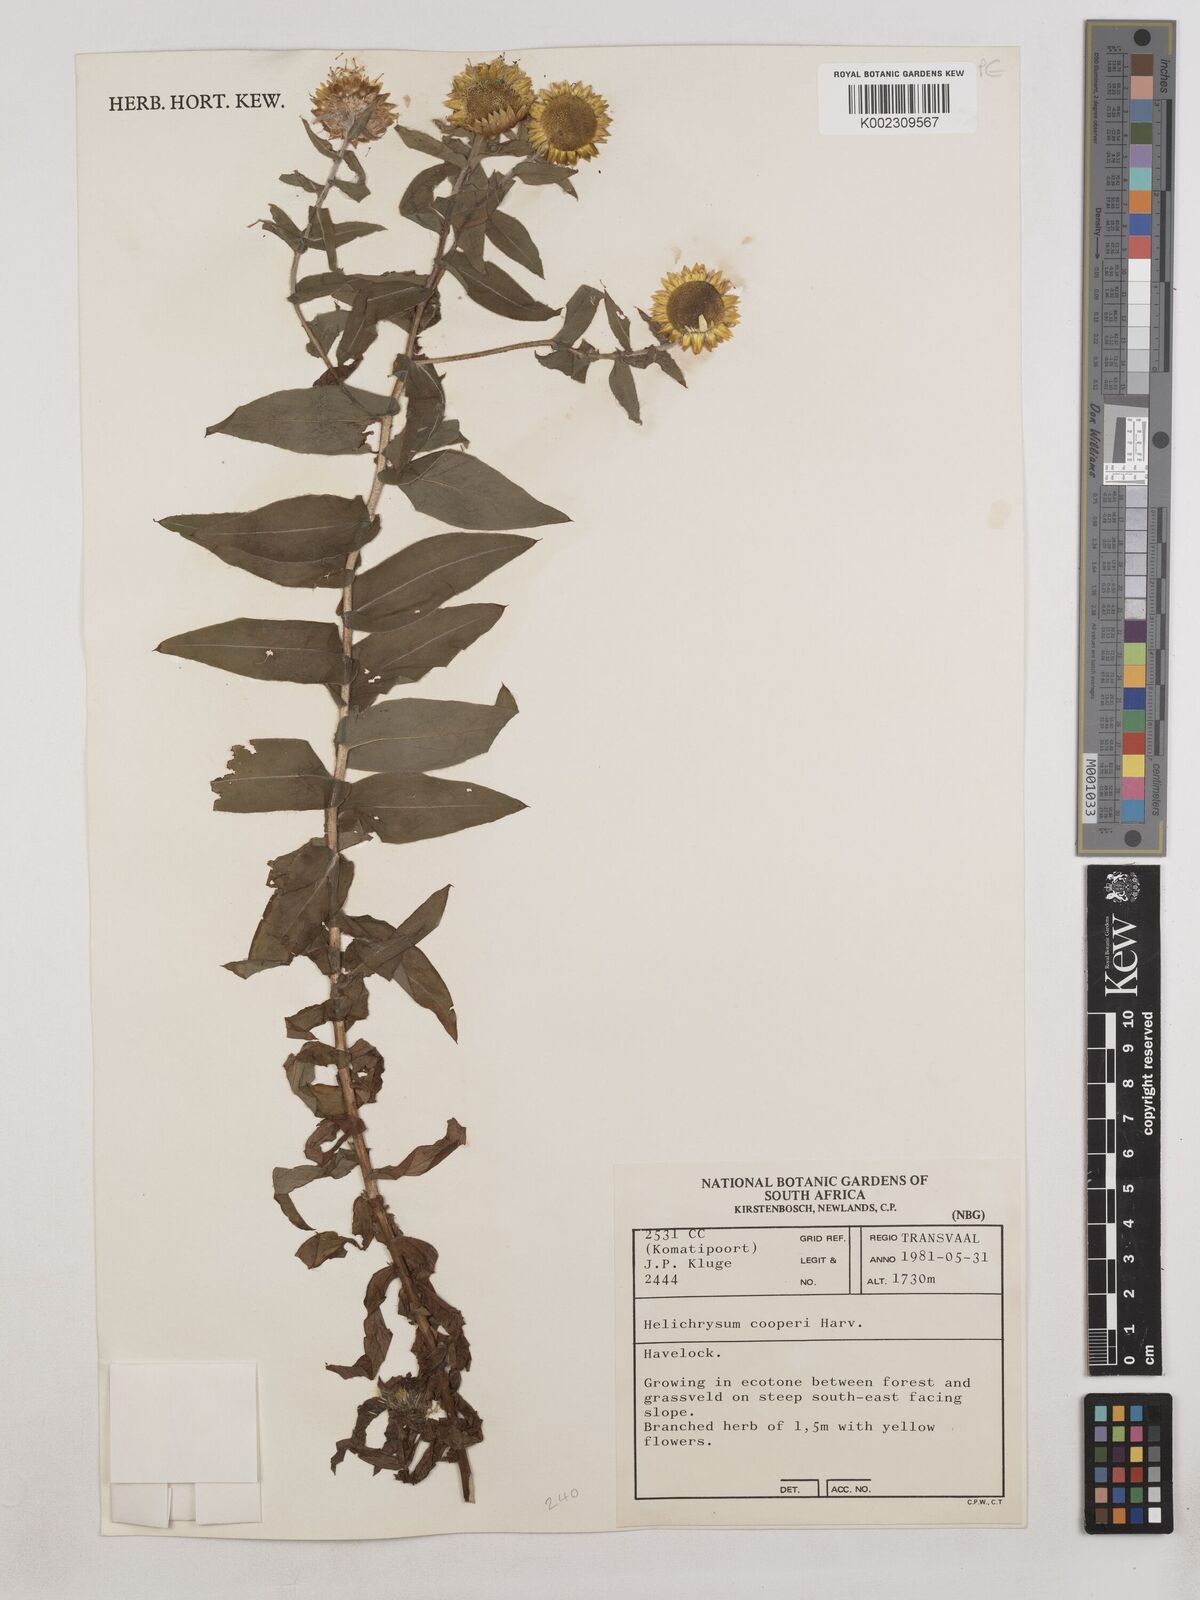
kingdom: Plantae
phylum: Tracheophyta
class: Magnoliopsida
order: Asterales
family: Asteraceae
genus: Helichrysum
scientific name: Helichrysum cooperi
